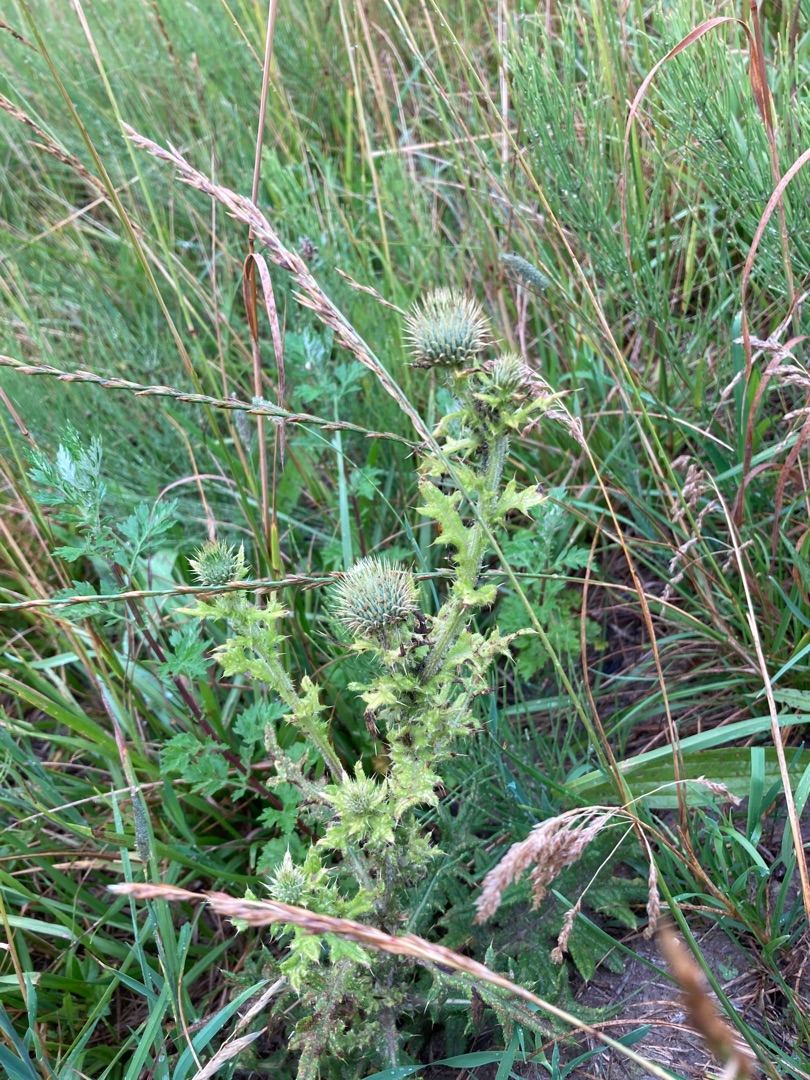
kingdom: Plantae
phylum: Tracheophyta
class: Magnoliopsida
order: Asterales
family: Asteraceae
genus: Cirsium
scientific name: Cirsium vulgare
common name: Horse-tidsel
